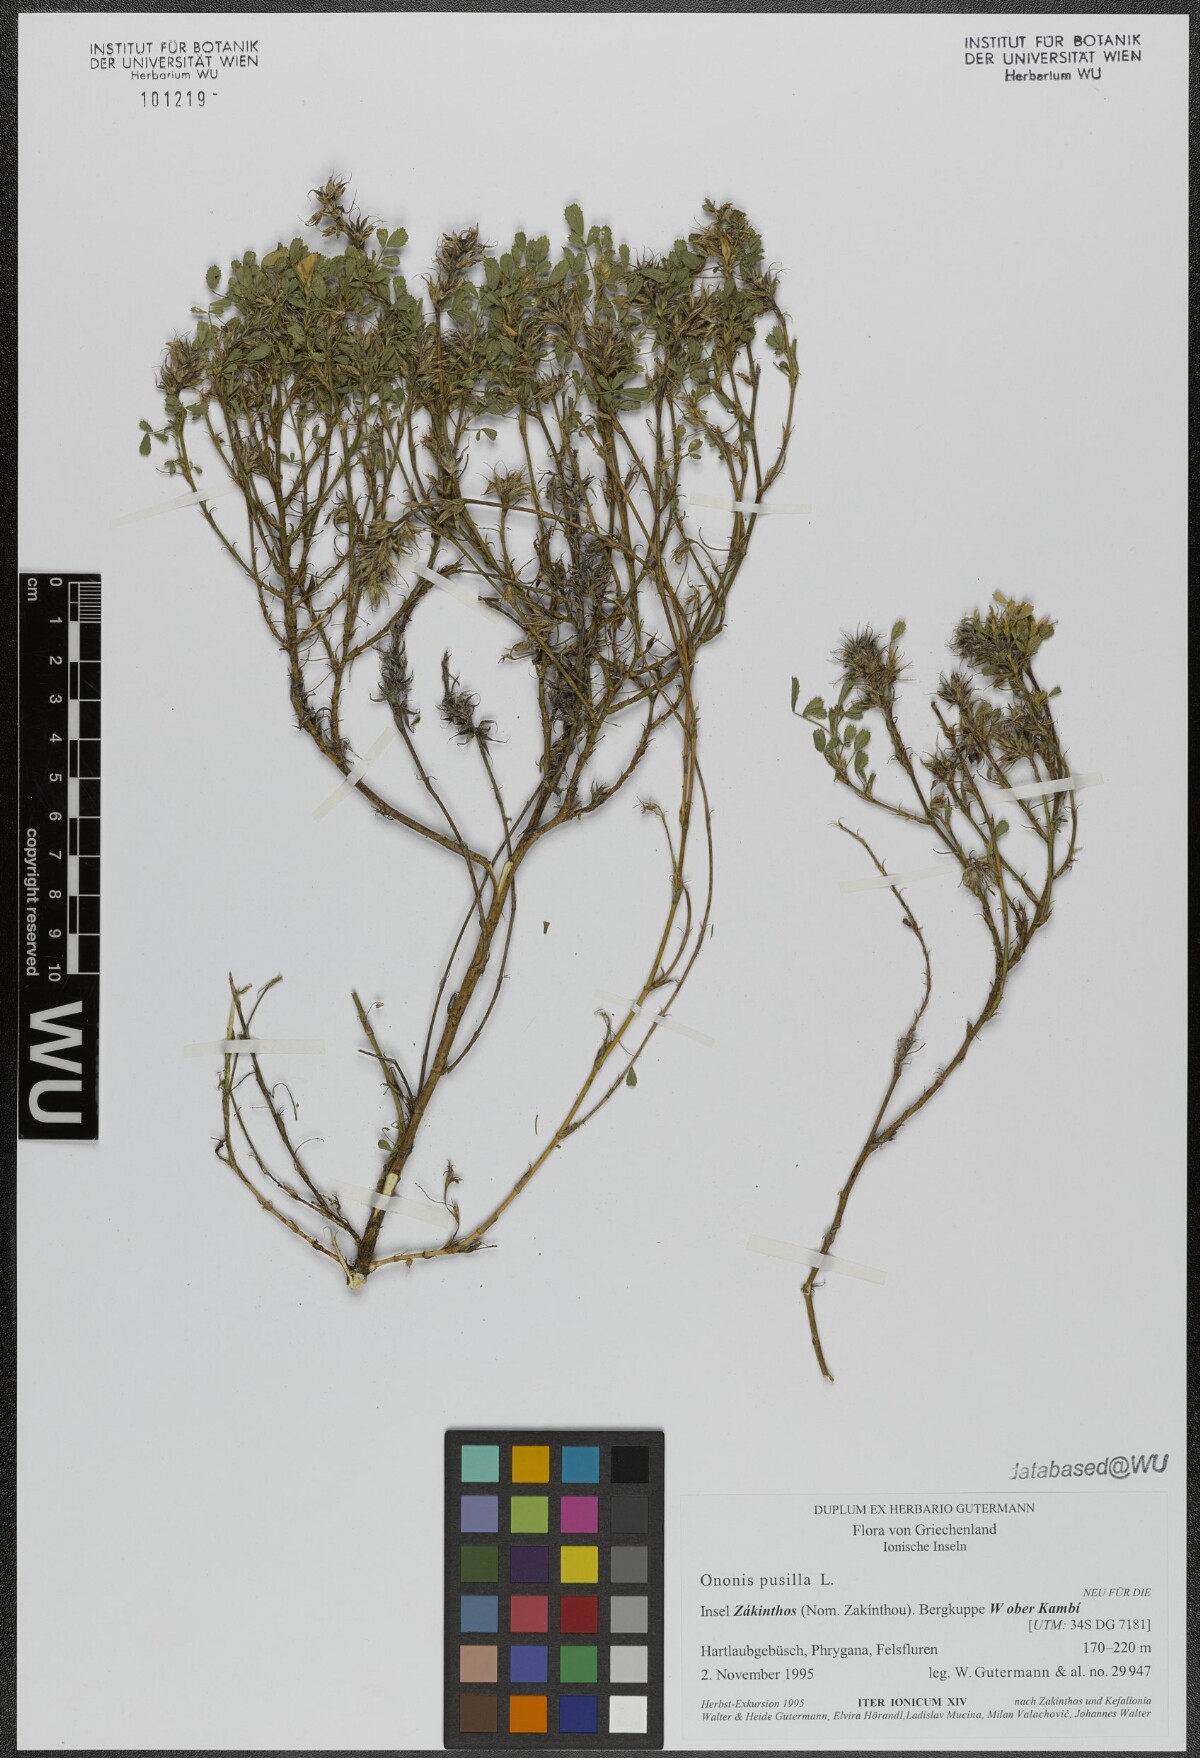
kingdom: Plantae
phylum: Tracheophyta
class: Magnoliopsida
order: Fabales
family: Fabaceae
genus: Ononis
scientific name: Ononis pusilla
